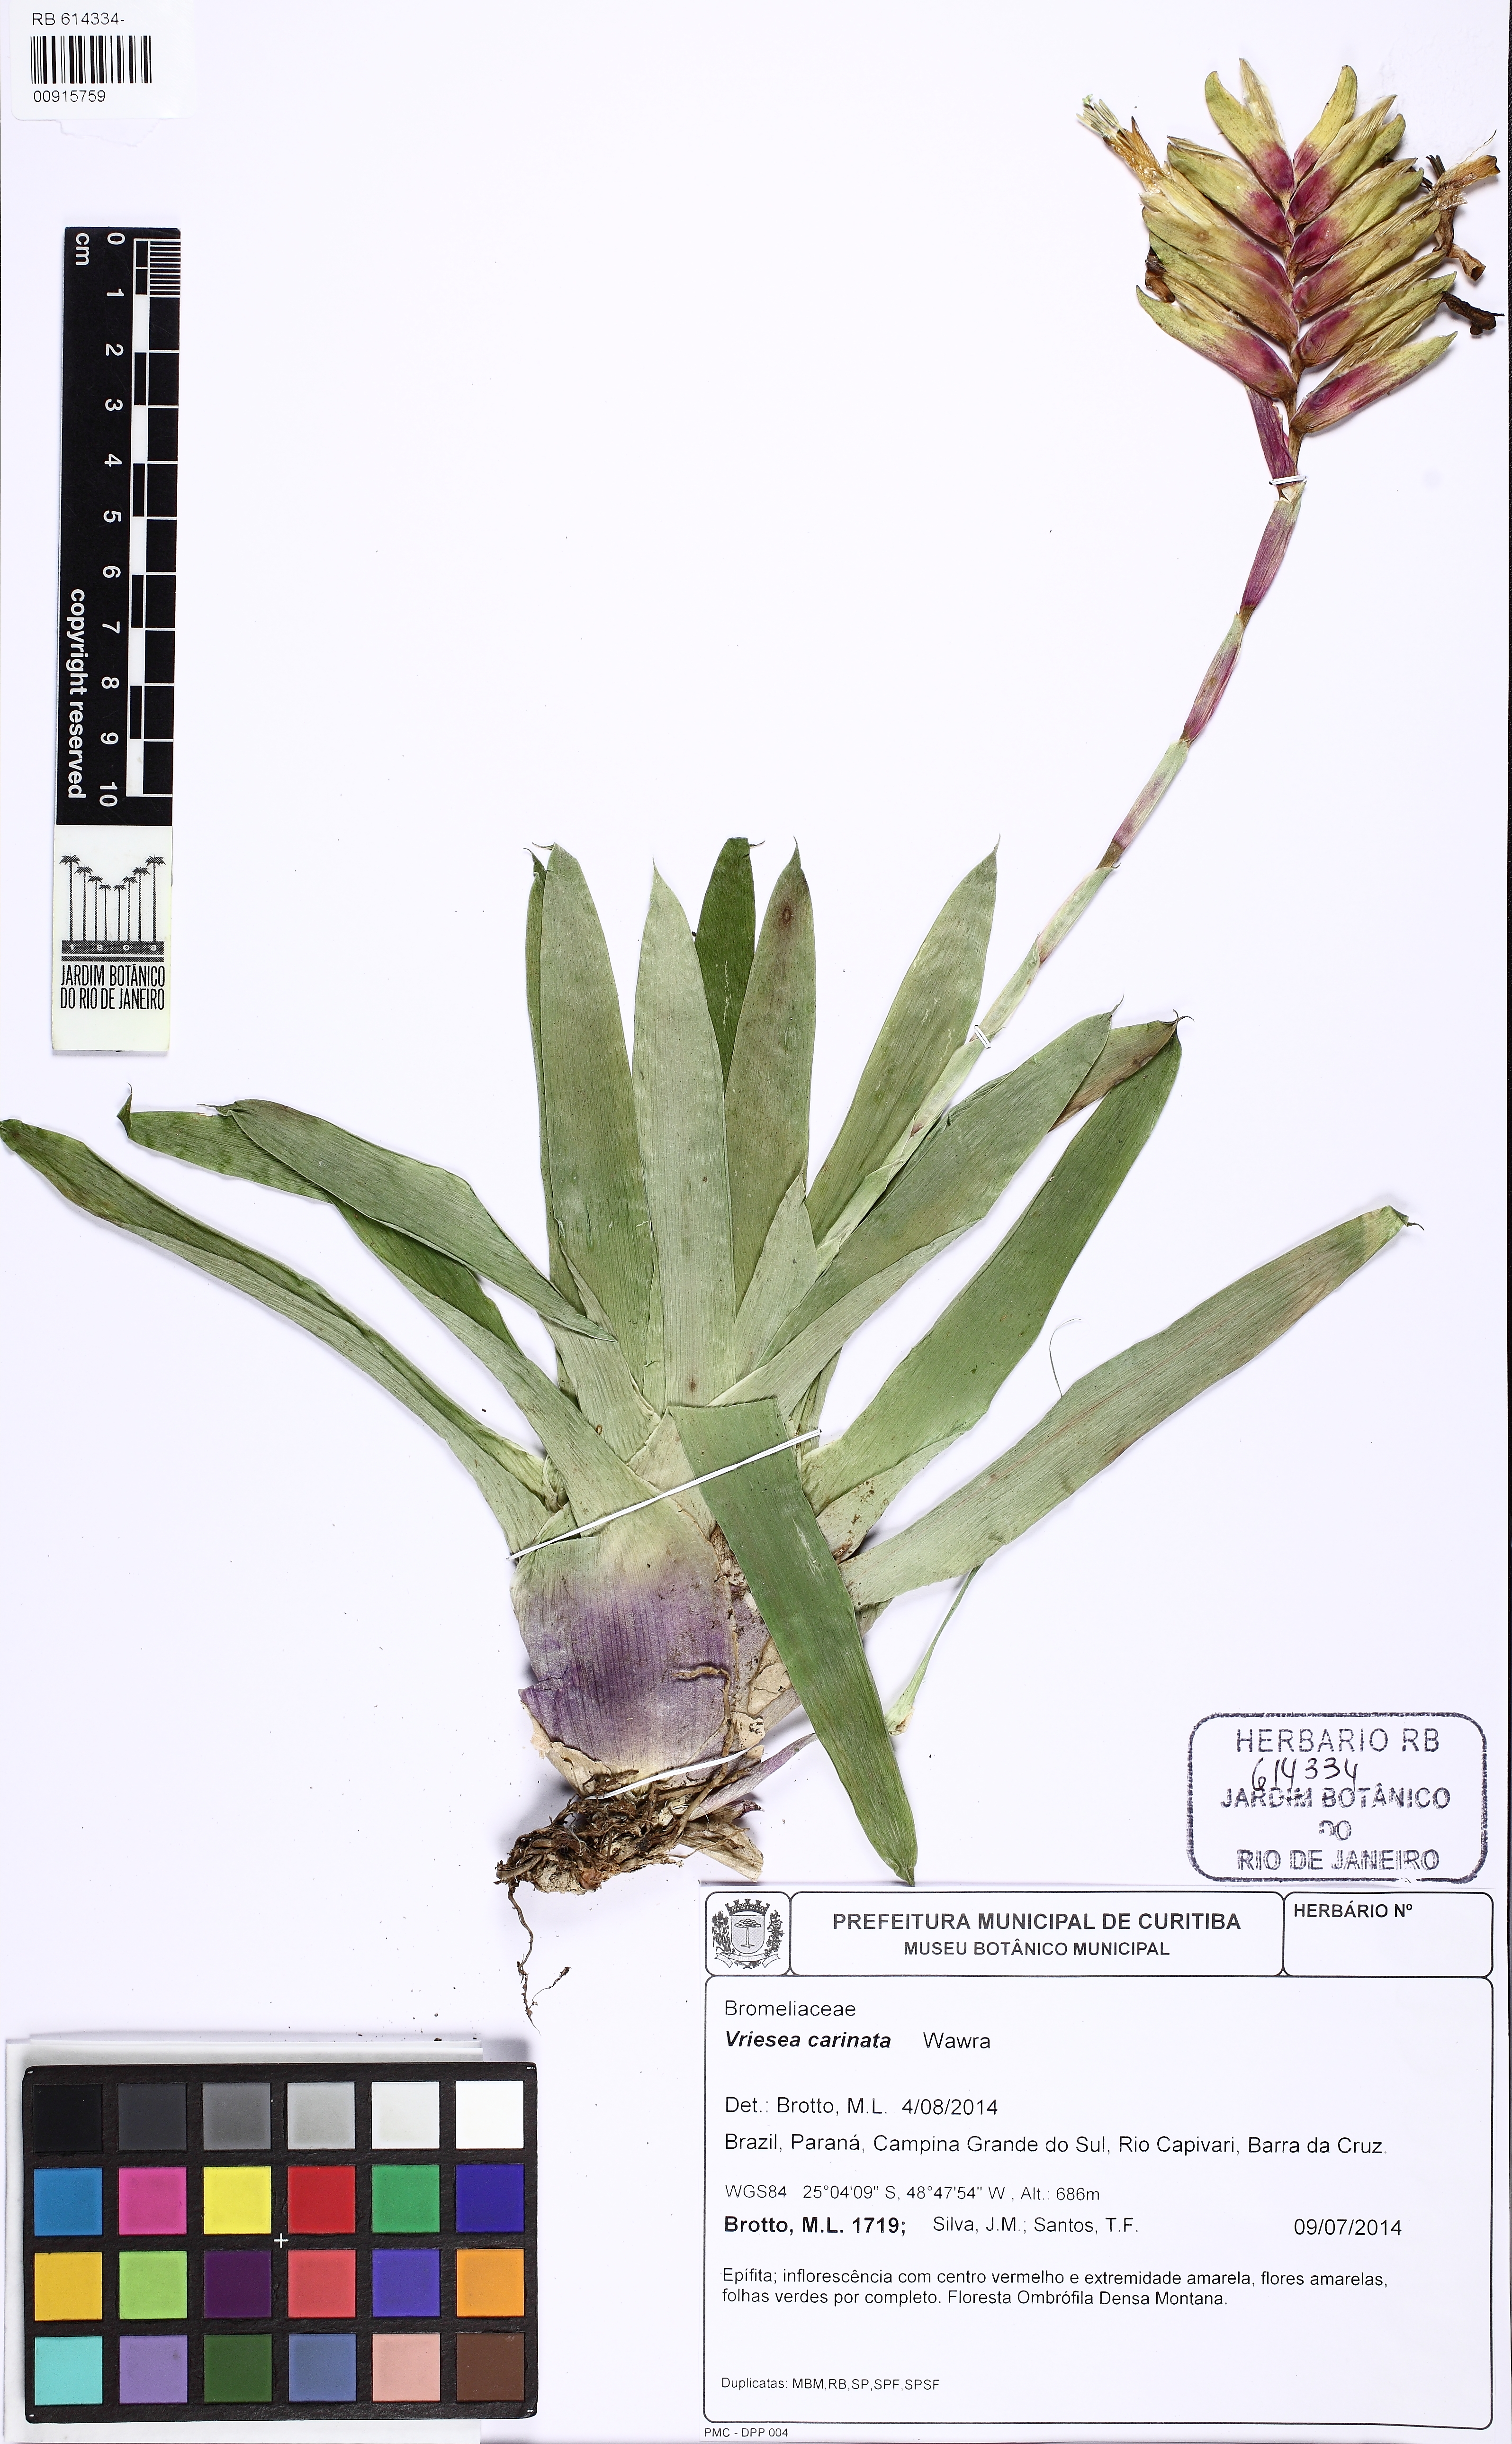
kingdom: Plantae
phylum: Tracheophyta
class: Liliopsida
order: Poales
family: Bromeliaceae
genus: Vriesea
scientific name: Vriesea carinata
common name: Lobster-claws
